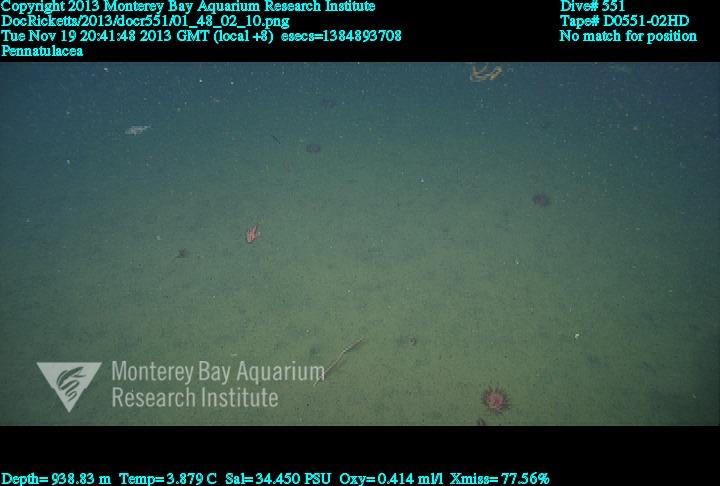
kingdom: Animalia
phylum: Cnidaria
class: Anthozoa
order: Scleralcyonacea
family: Funiculinidae
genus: Funiculina
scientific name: Funiculina
